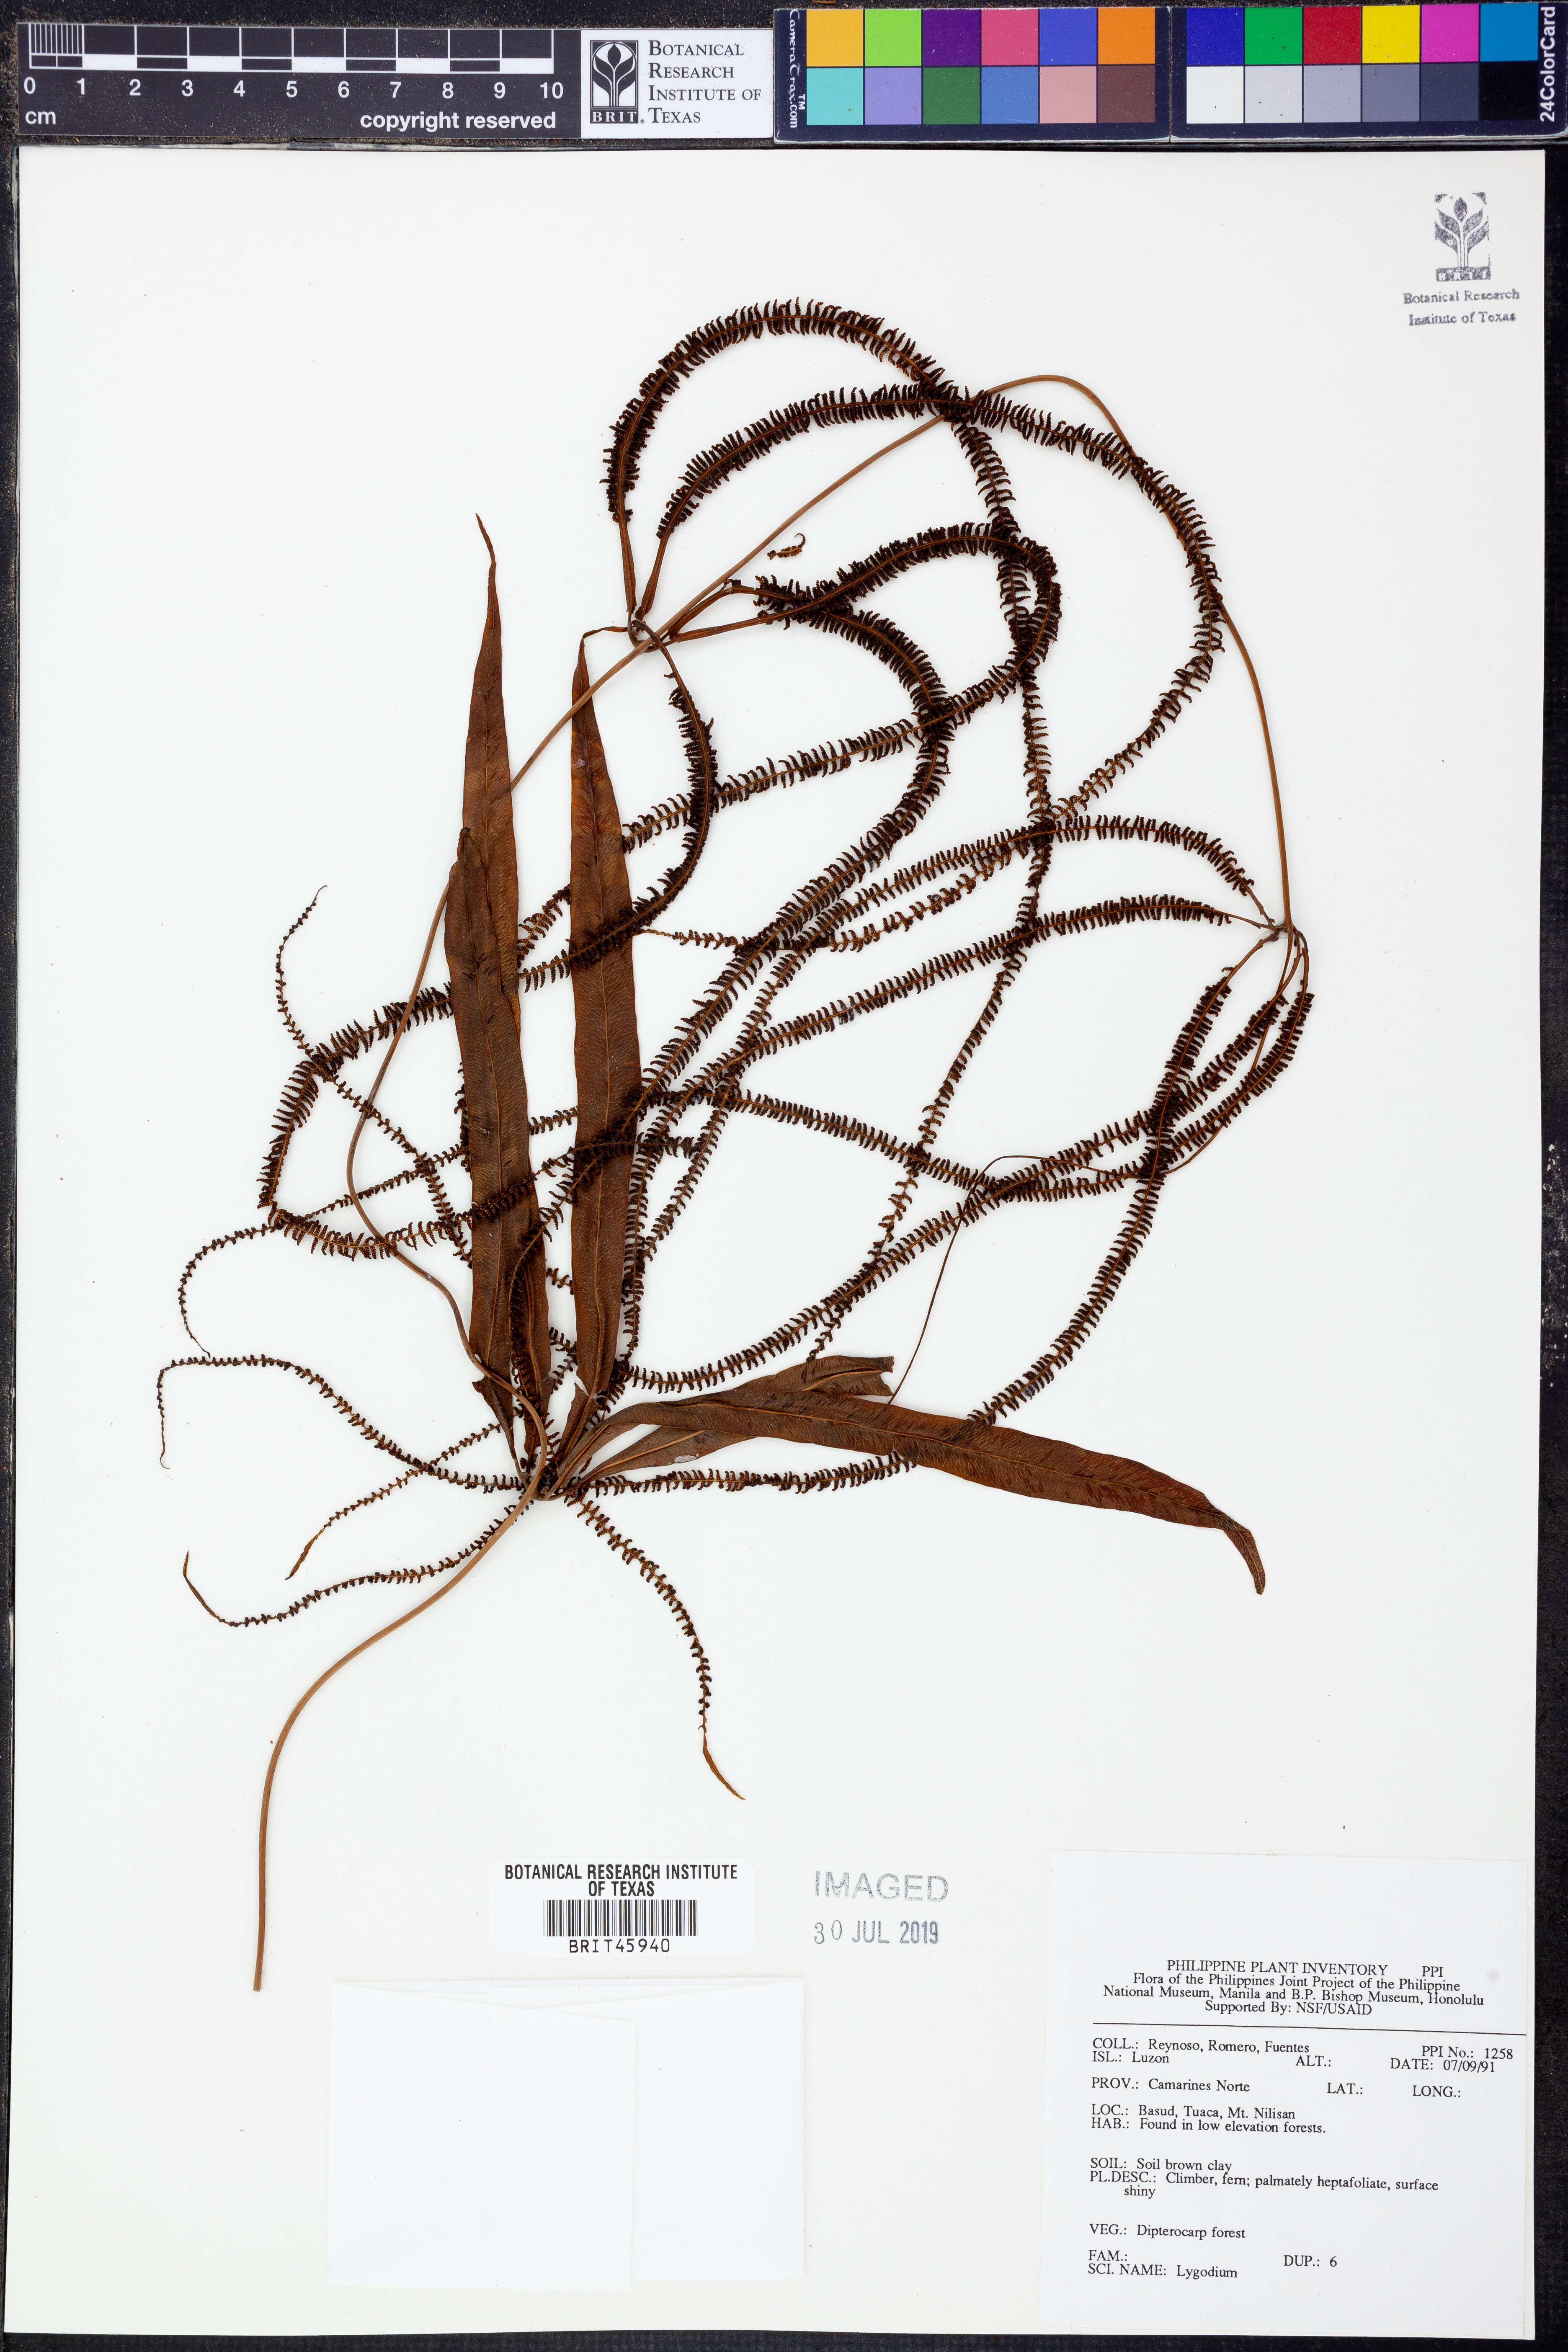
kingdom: Plantae
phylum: Tracheophyta
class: Polypodiopsida
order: Schizaeales
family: Lygodiaceae
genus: Lygodium
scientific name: Lygodium
